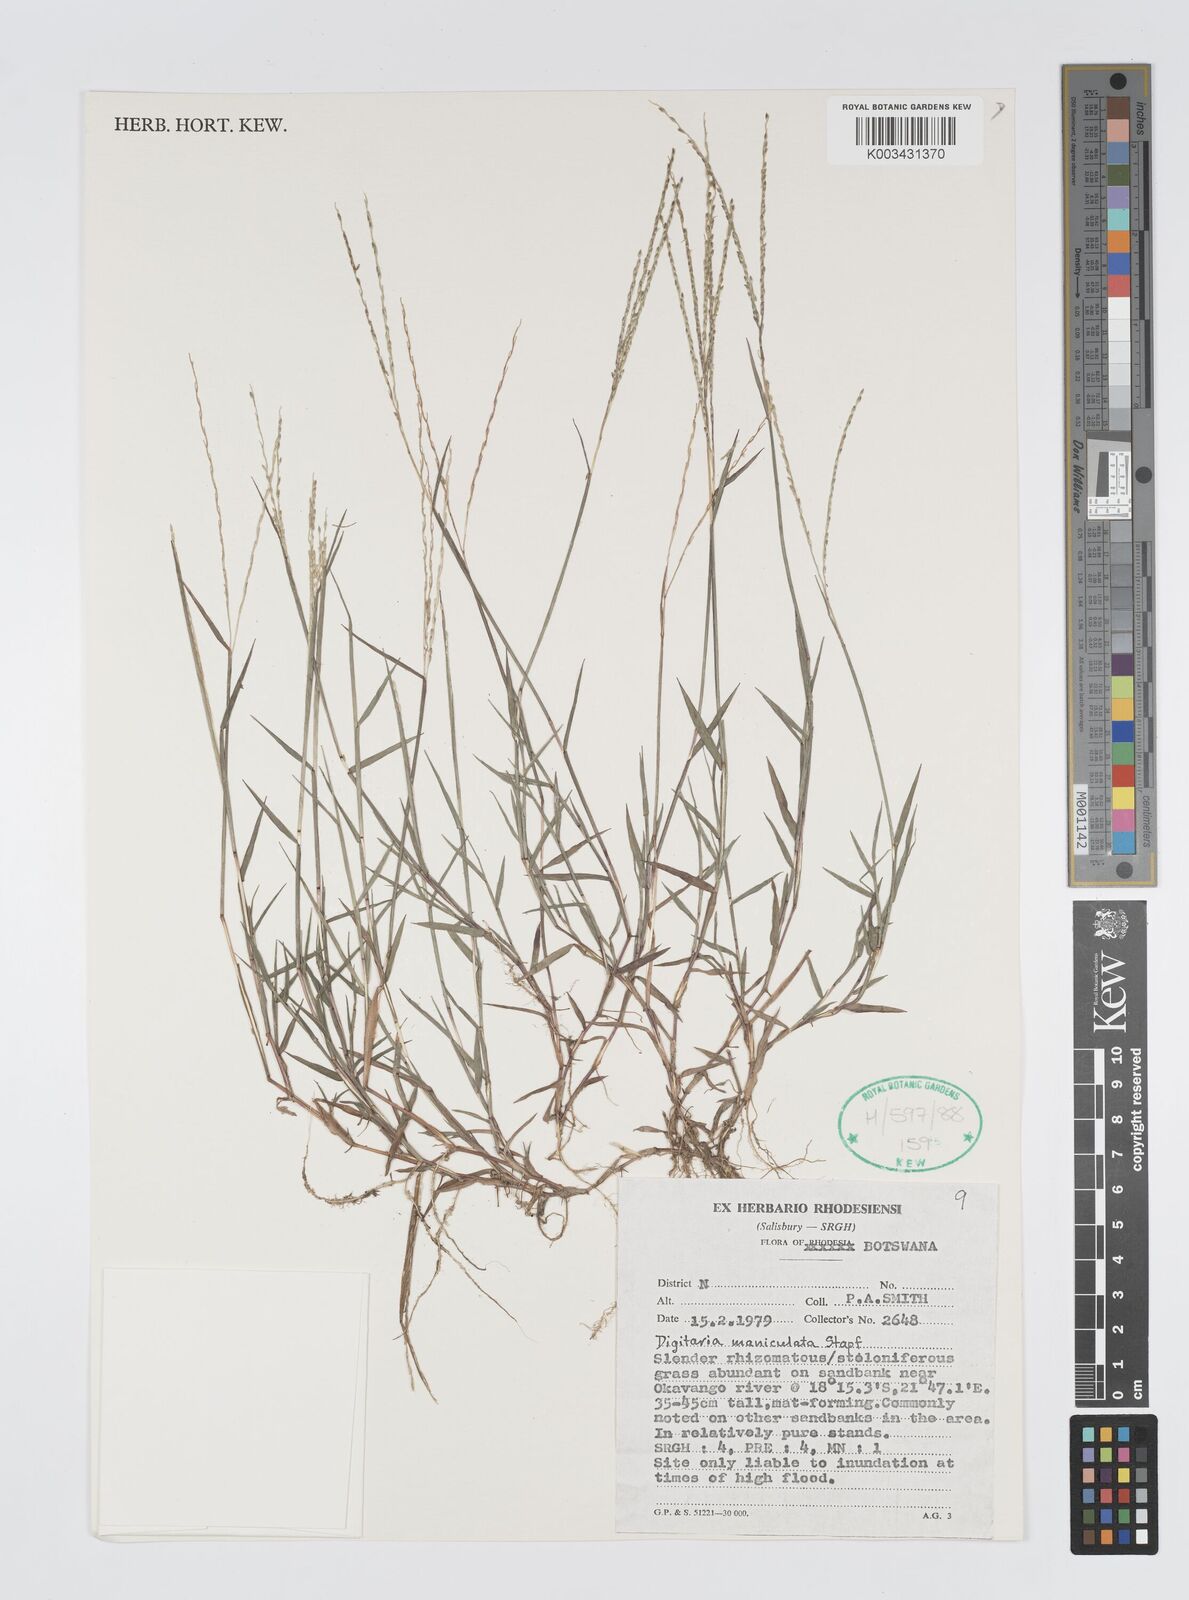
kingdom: Plantae
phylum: Tracheophyta
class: Liliopsida
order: Poales
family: Poaceae
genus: Digitaria
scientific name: Digitaria maniculata
